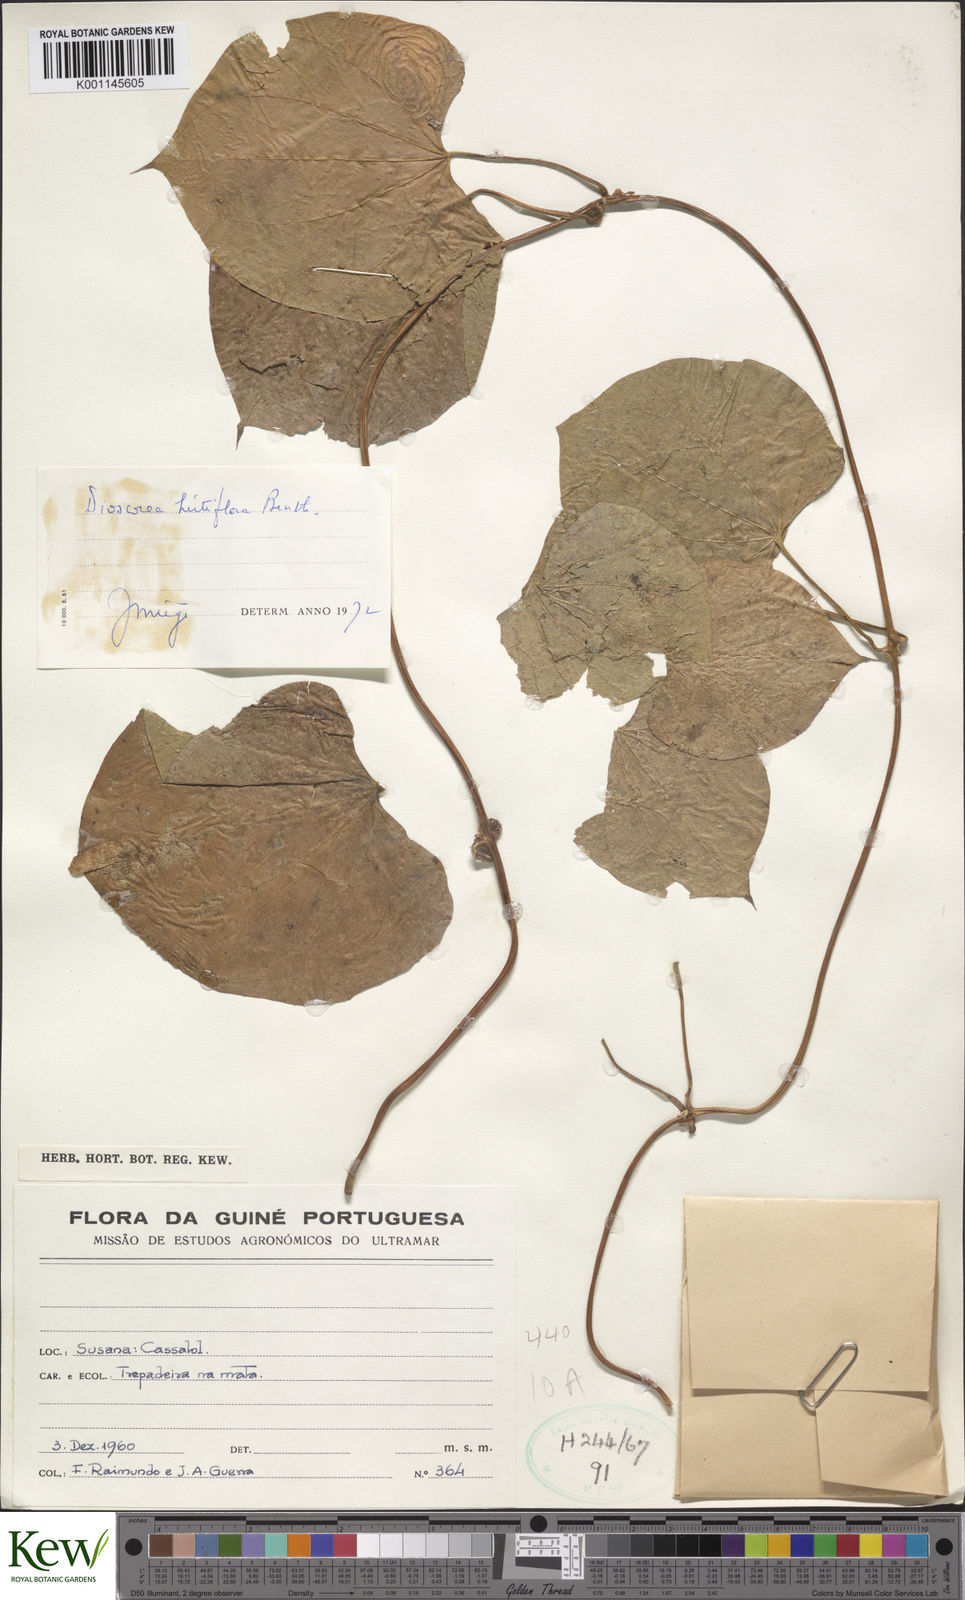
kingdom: Plantae
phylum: Tracheophyta
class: Liliopsida
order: Dioscoreales
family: Dioscoreaceae
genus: Dioscorea
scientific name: Dioscorea hirtiflora
